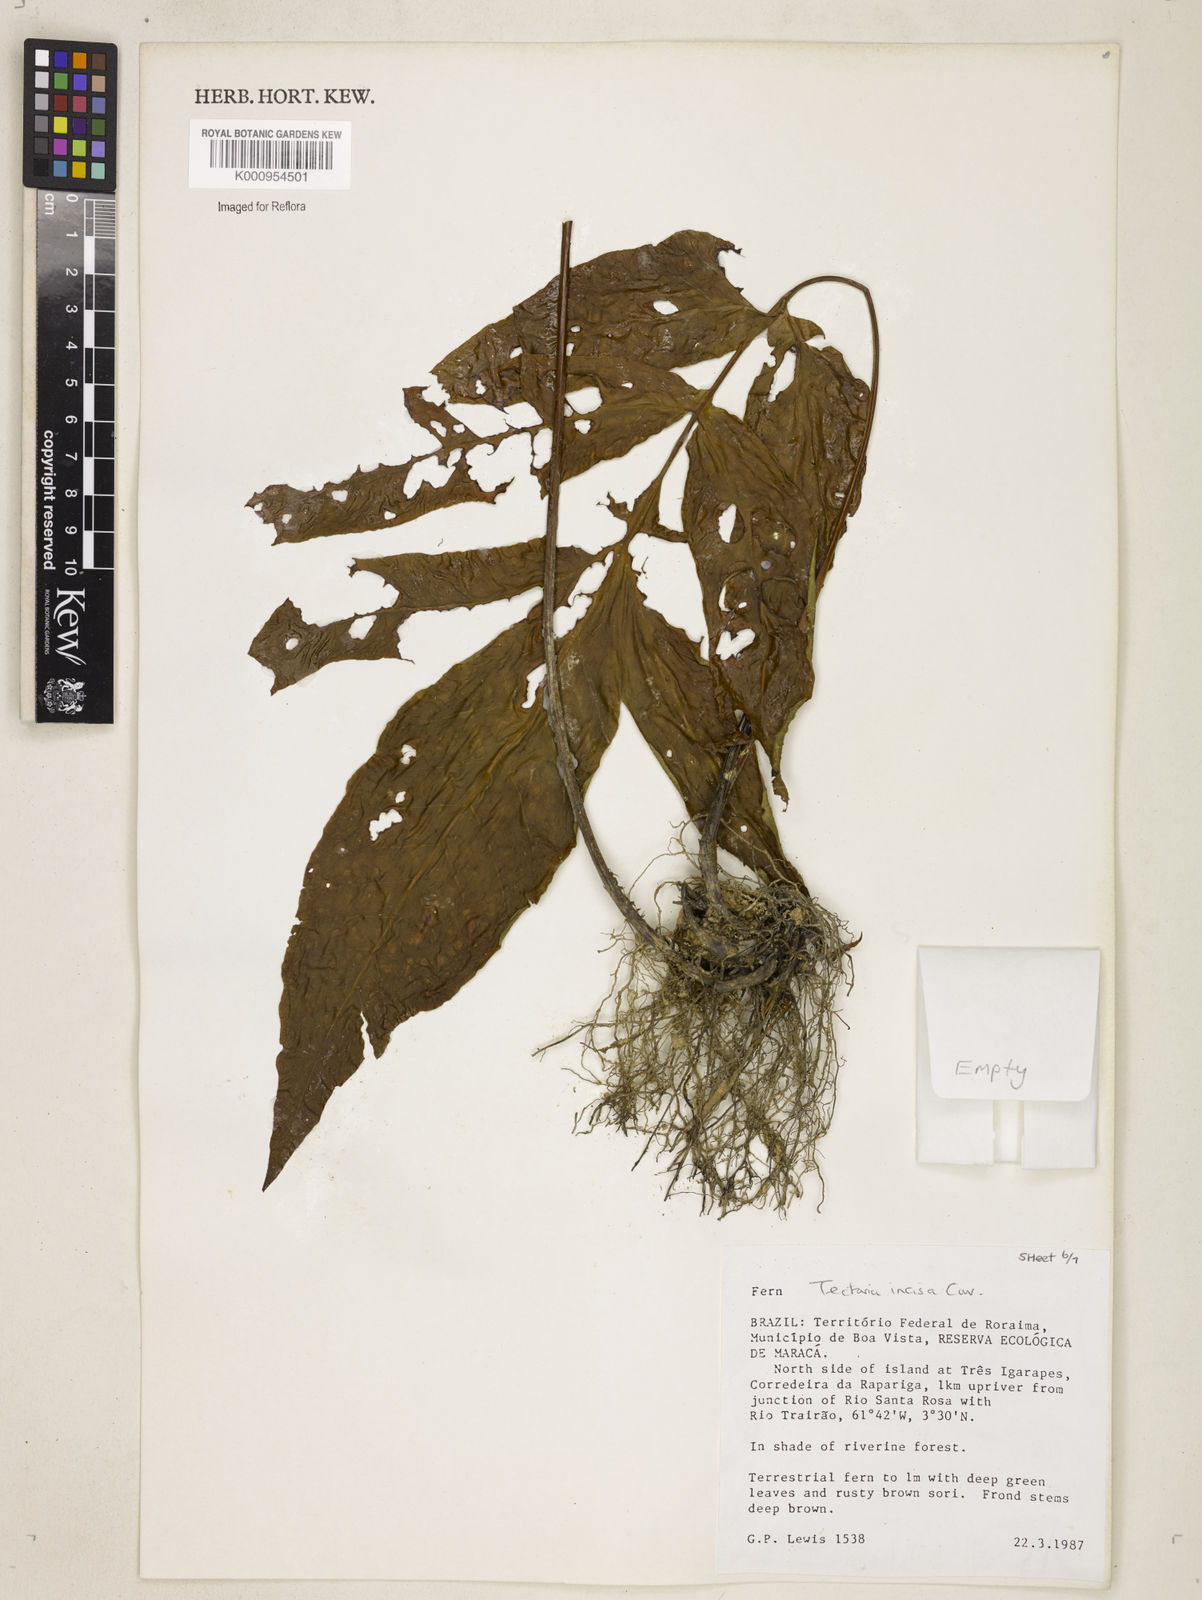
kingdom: Plantae
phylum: Tracheophyta
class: Polypodiopsida
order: Polypodiales
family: Tectariaceae
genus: Tectaria
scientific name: Tectaria incisa
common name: Incised halberd fern
